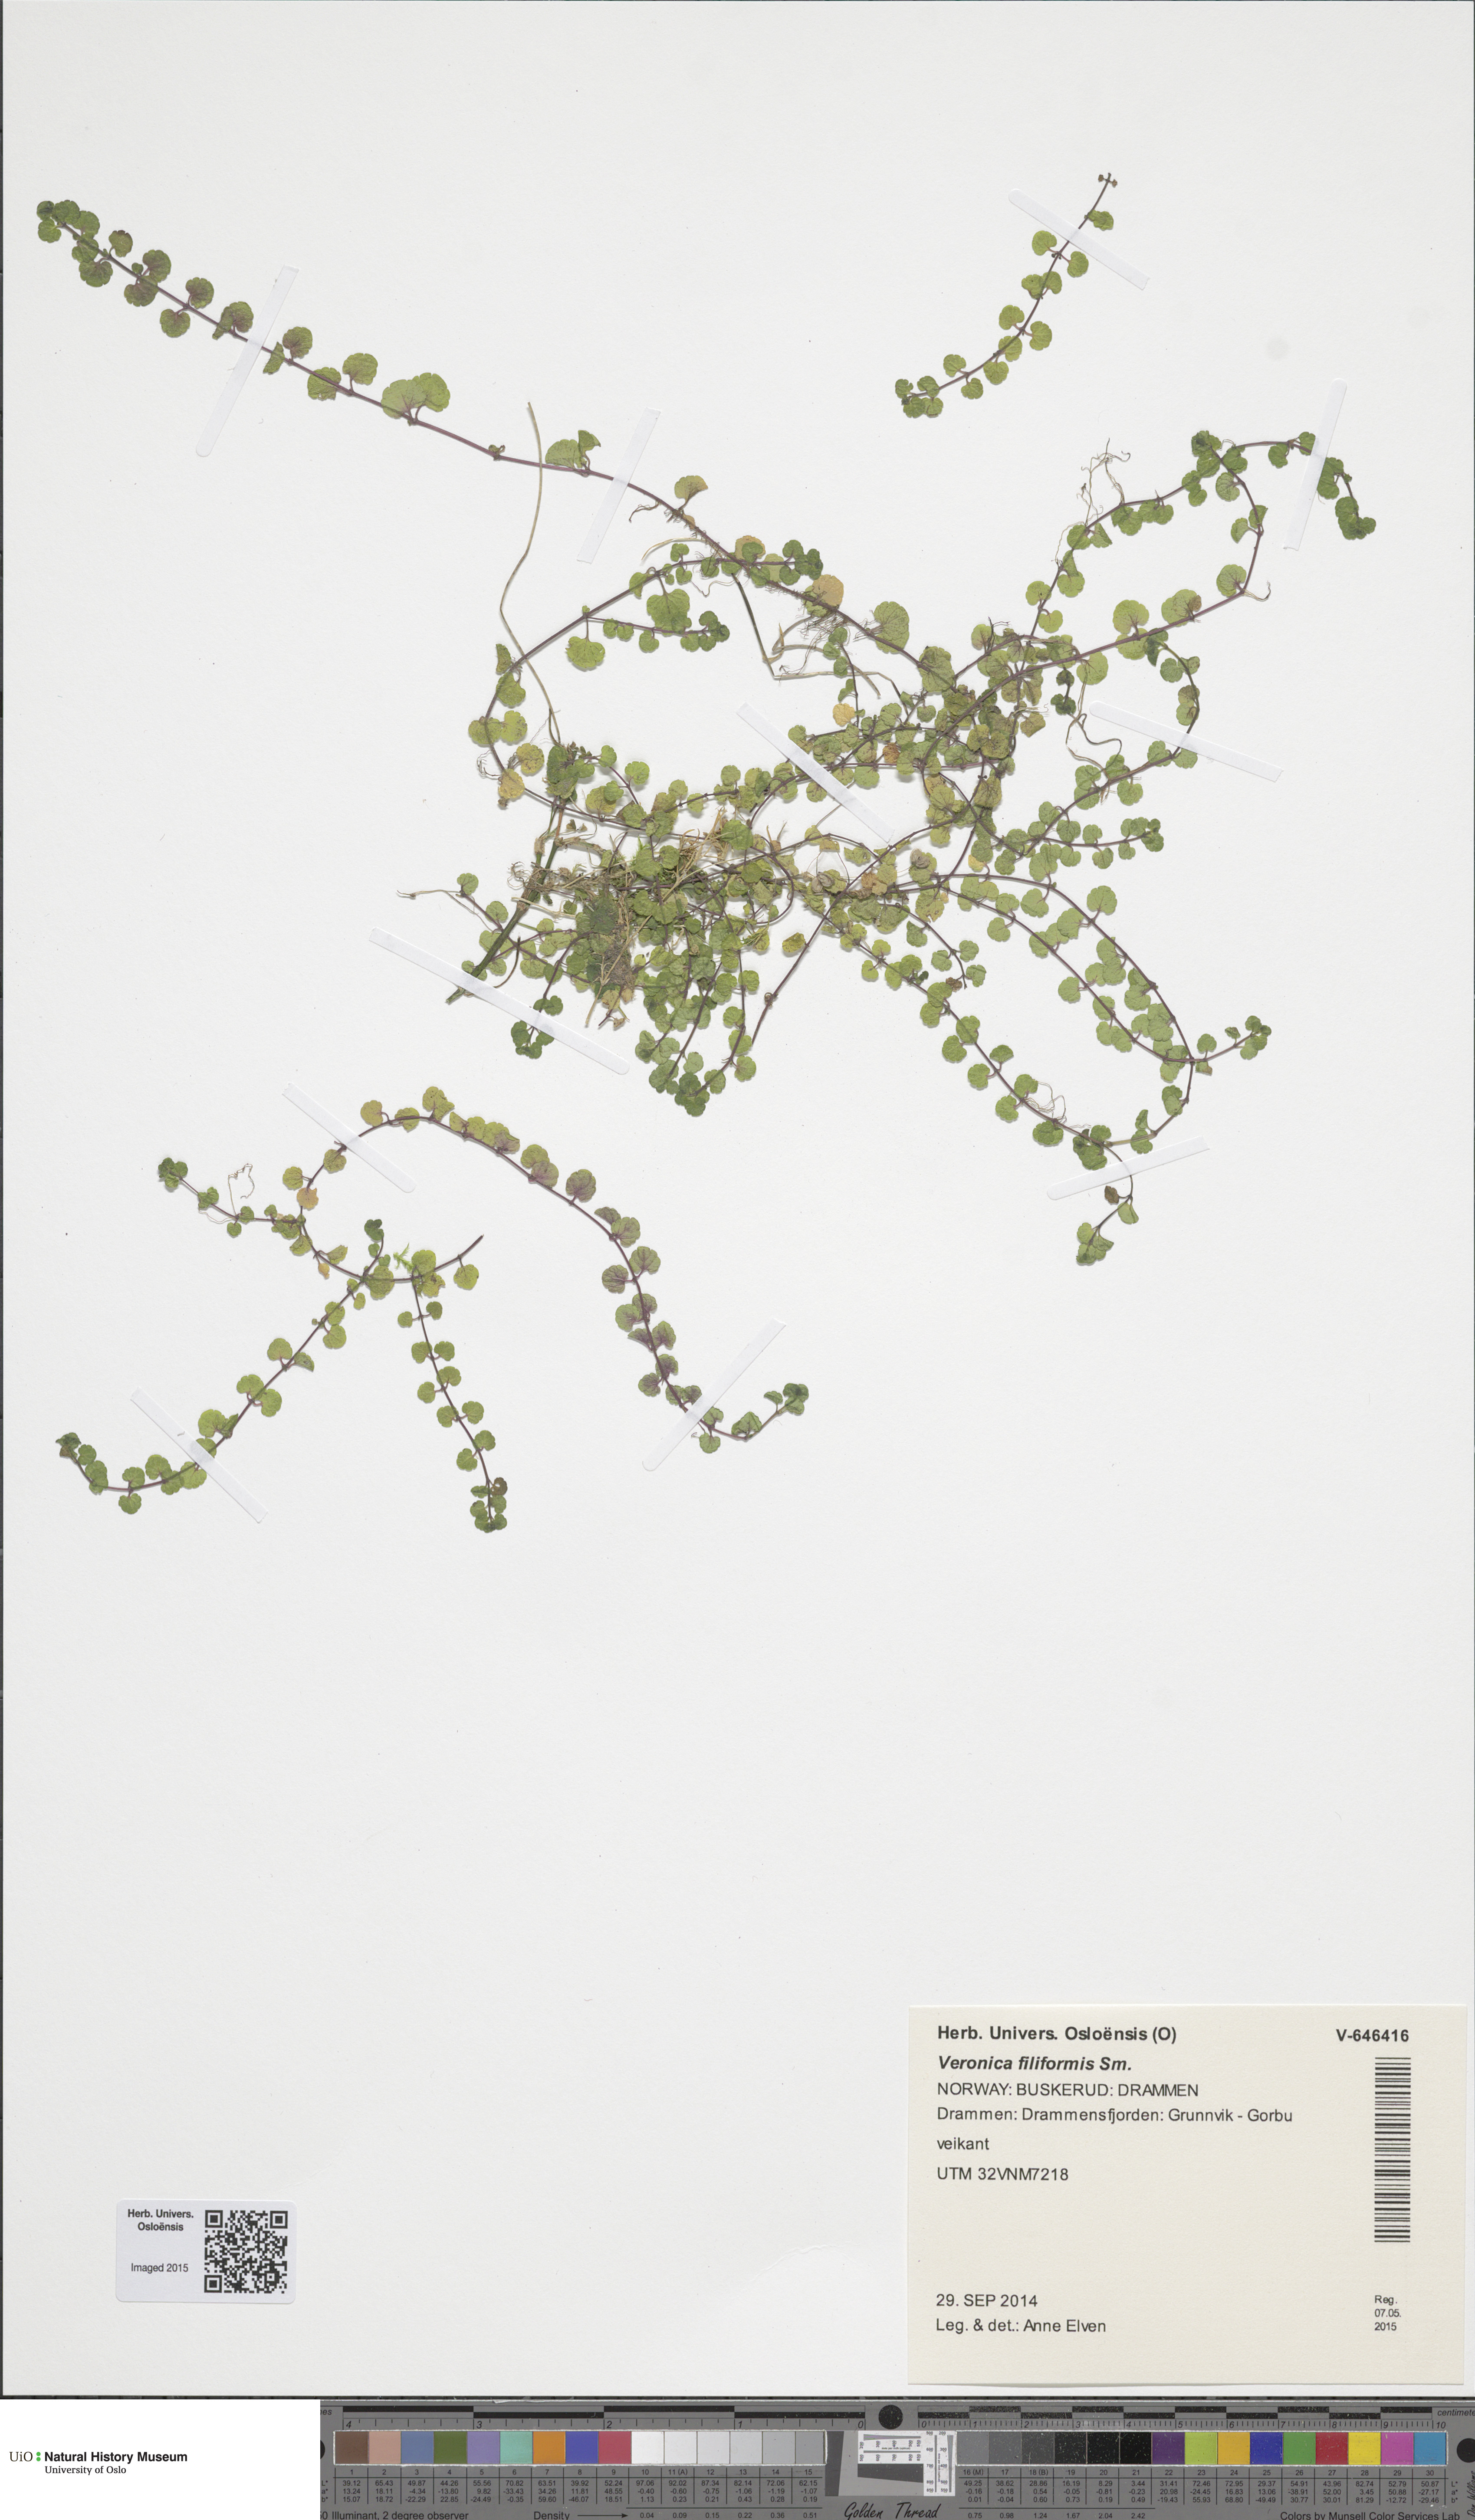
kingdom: Plantae
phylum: Tracheophyta
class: Magnoliopsida
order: Lamiales
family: Plantaginaceae
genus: Veronica
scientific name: Veronica filiformis
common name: Slender speedwell
